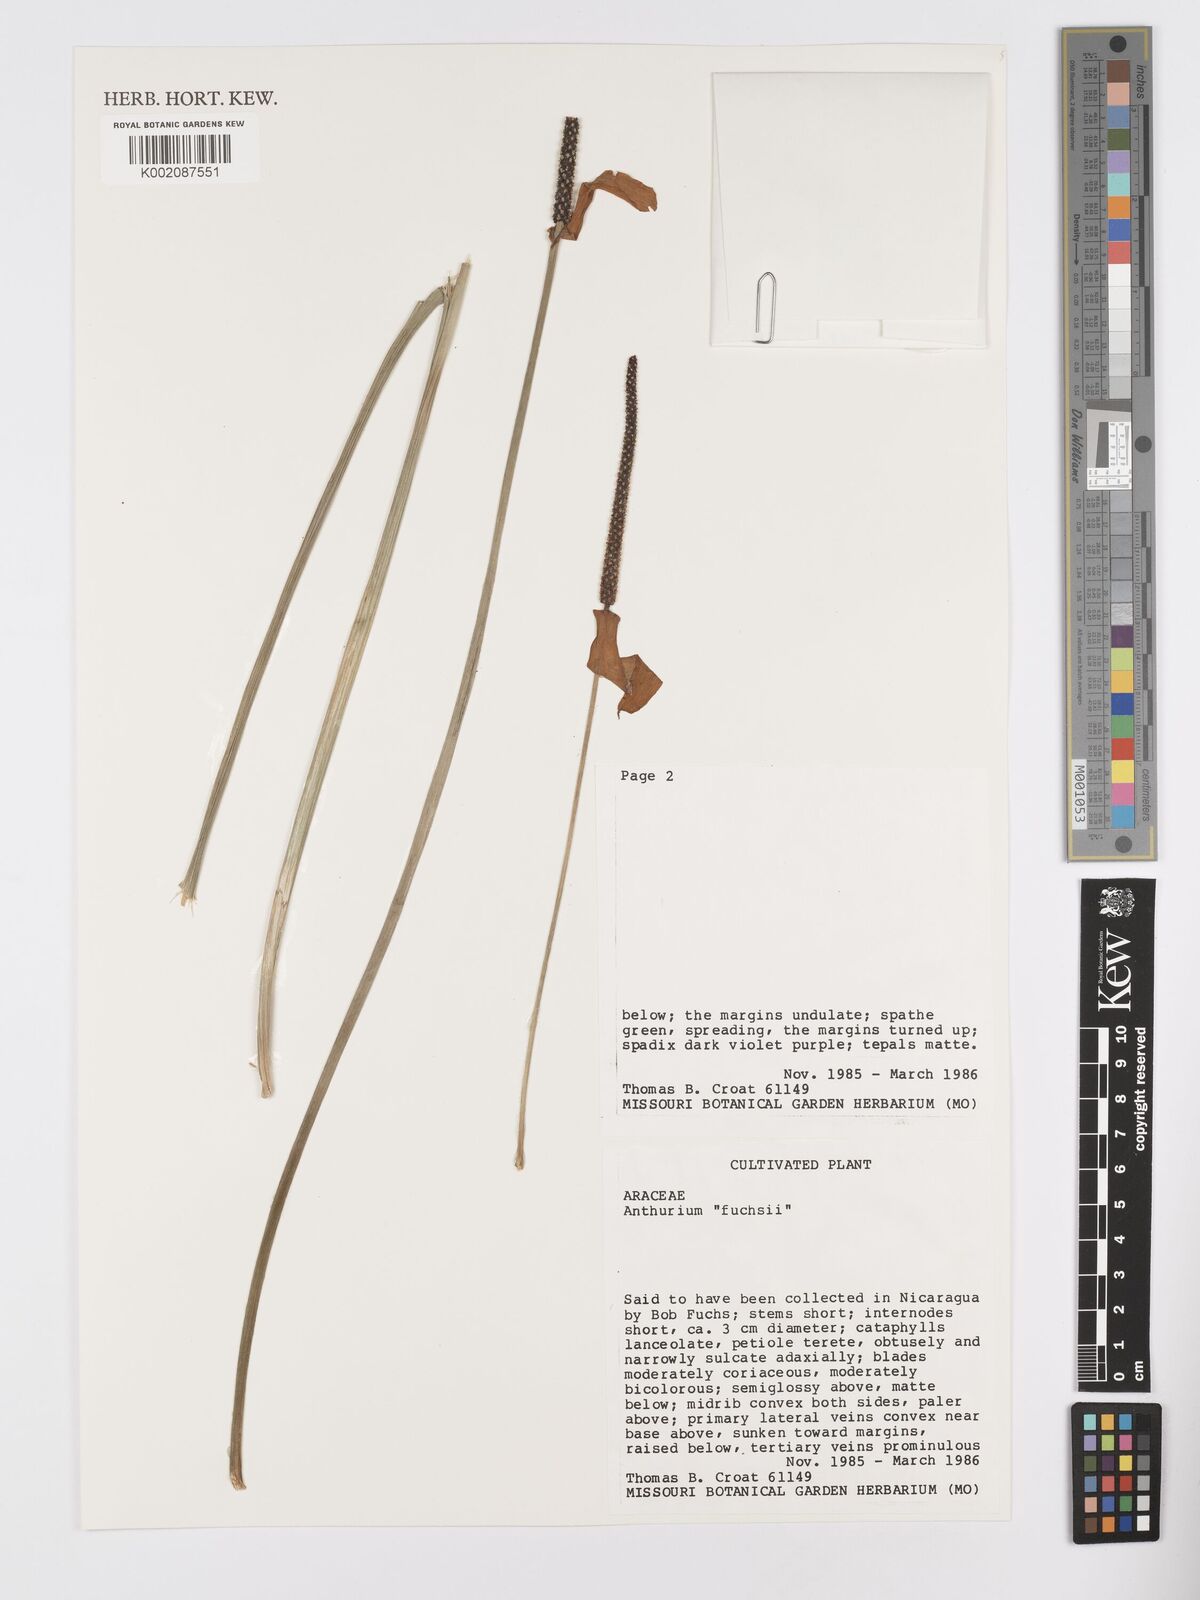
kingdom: Plantae
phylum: Tracheophyta
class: Liliopsida
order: Alismatales
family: Araceae
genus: Anthurium
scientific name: Anthurium
